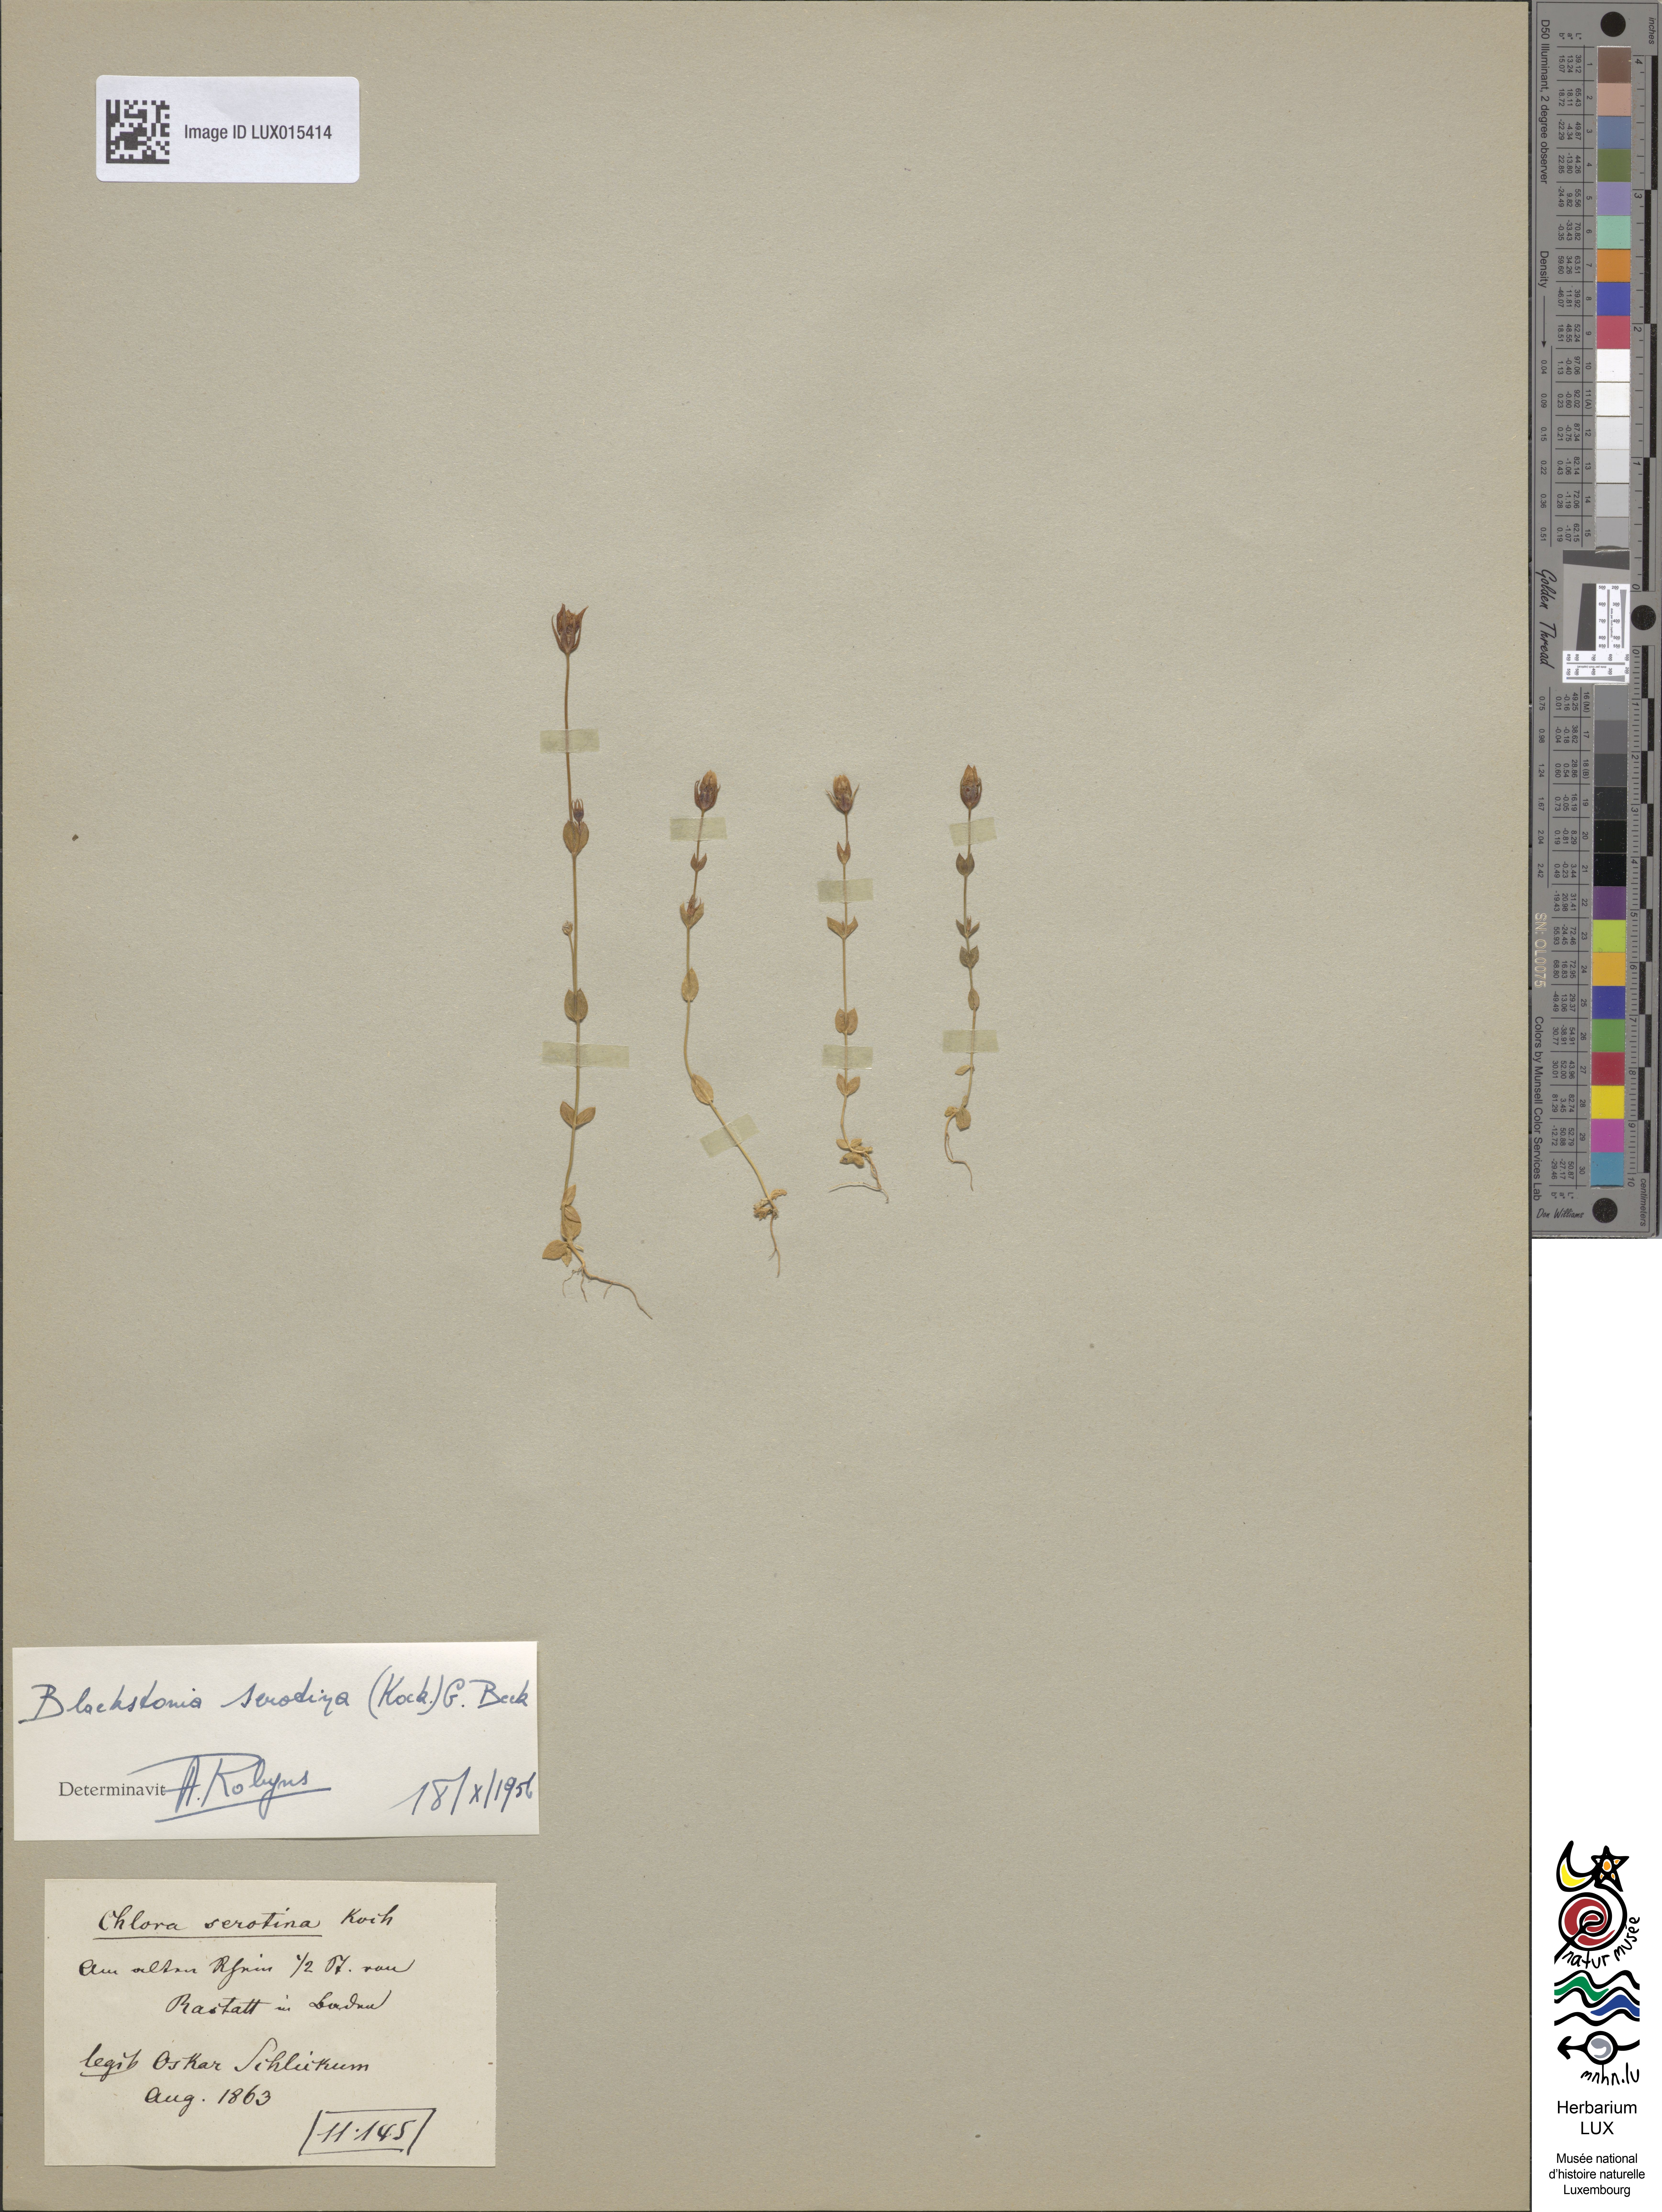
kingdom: Plantae
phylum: Tracheophyta
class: Magnoliopsida
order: Gentianales
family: Gentianaceae
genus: Blackstonia
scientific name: Blackstonia perfoliata
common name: Yellow-wort
